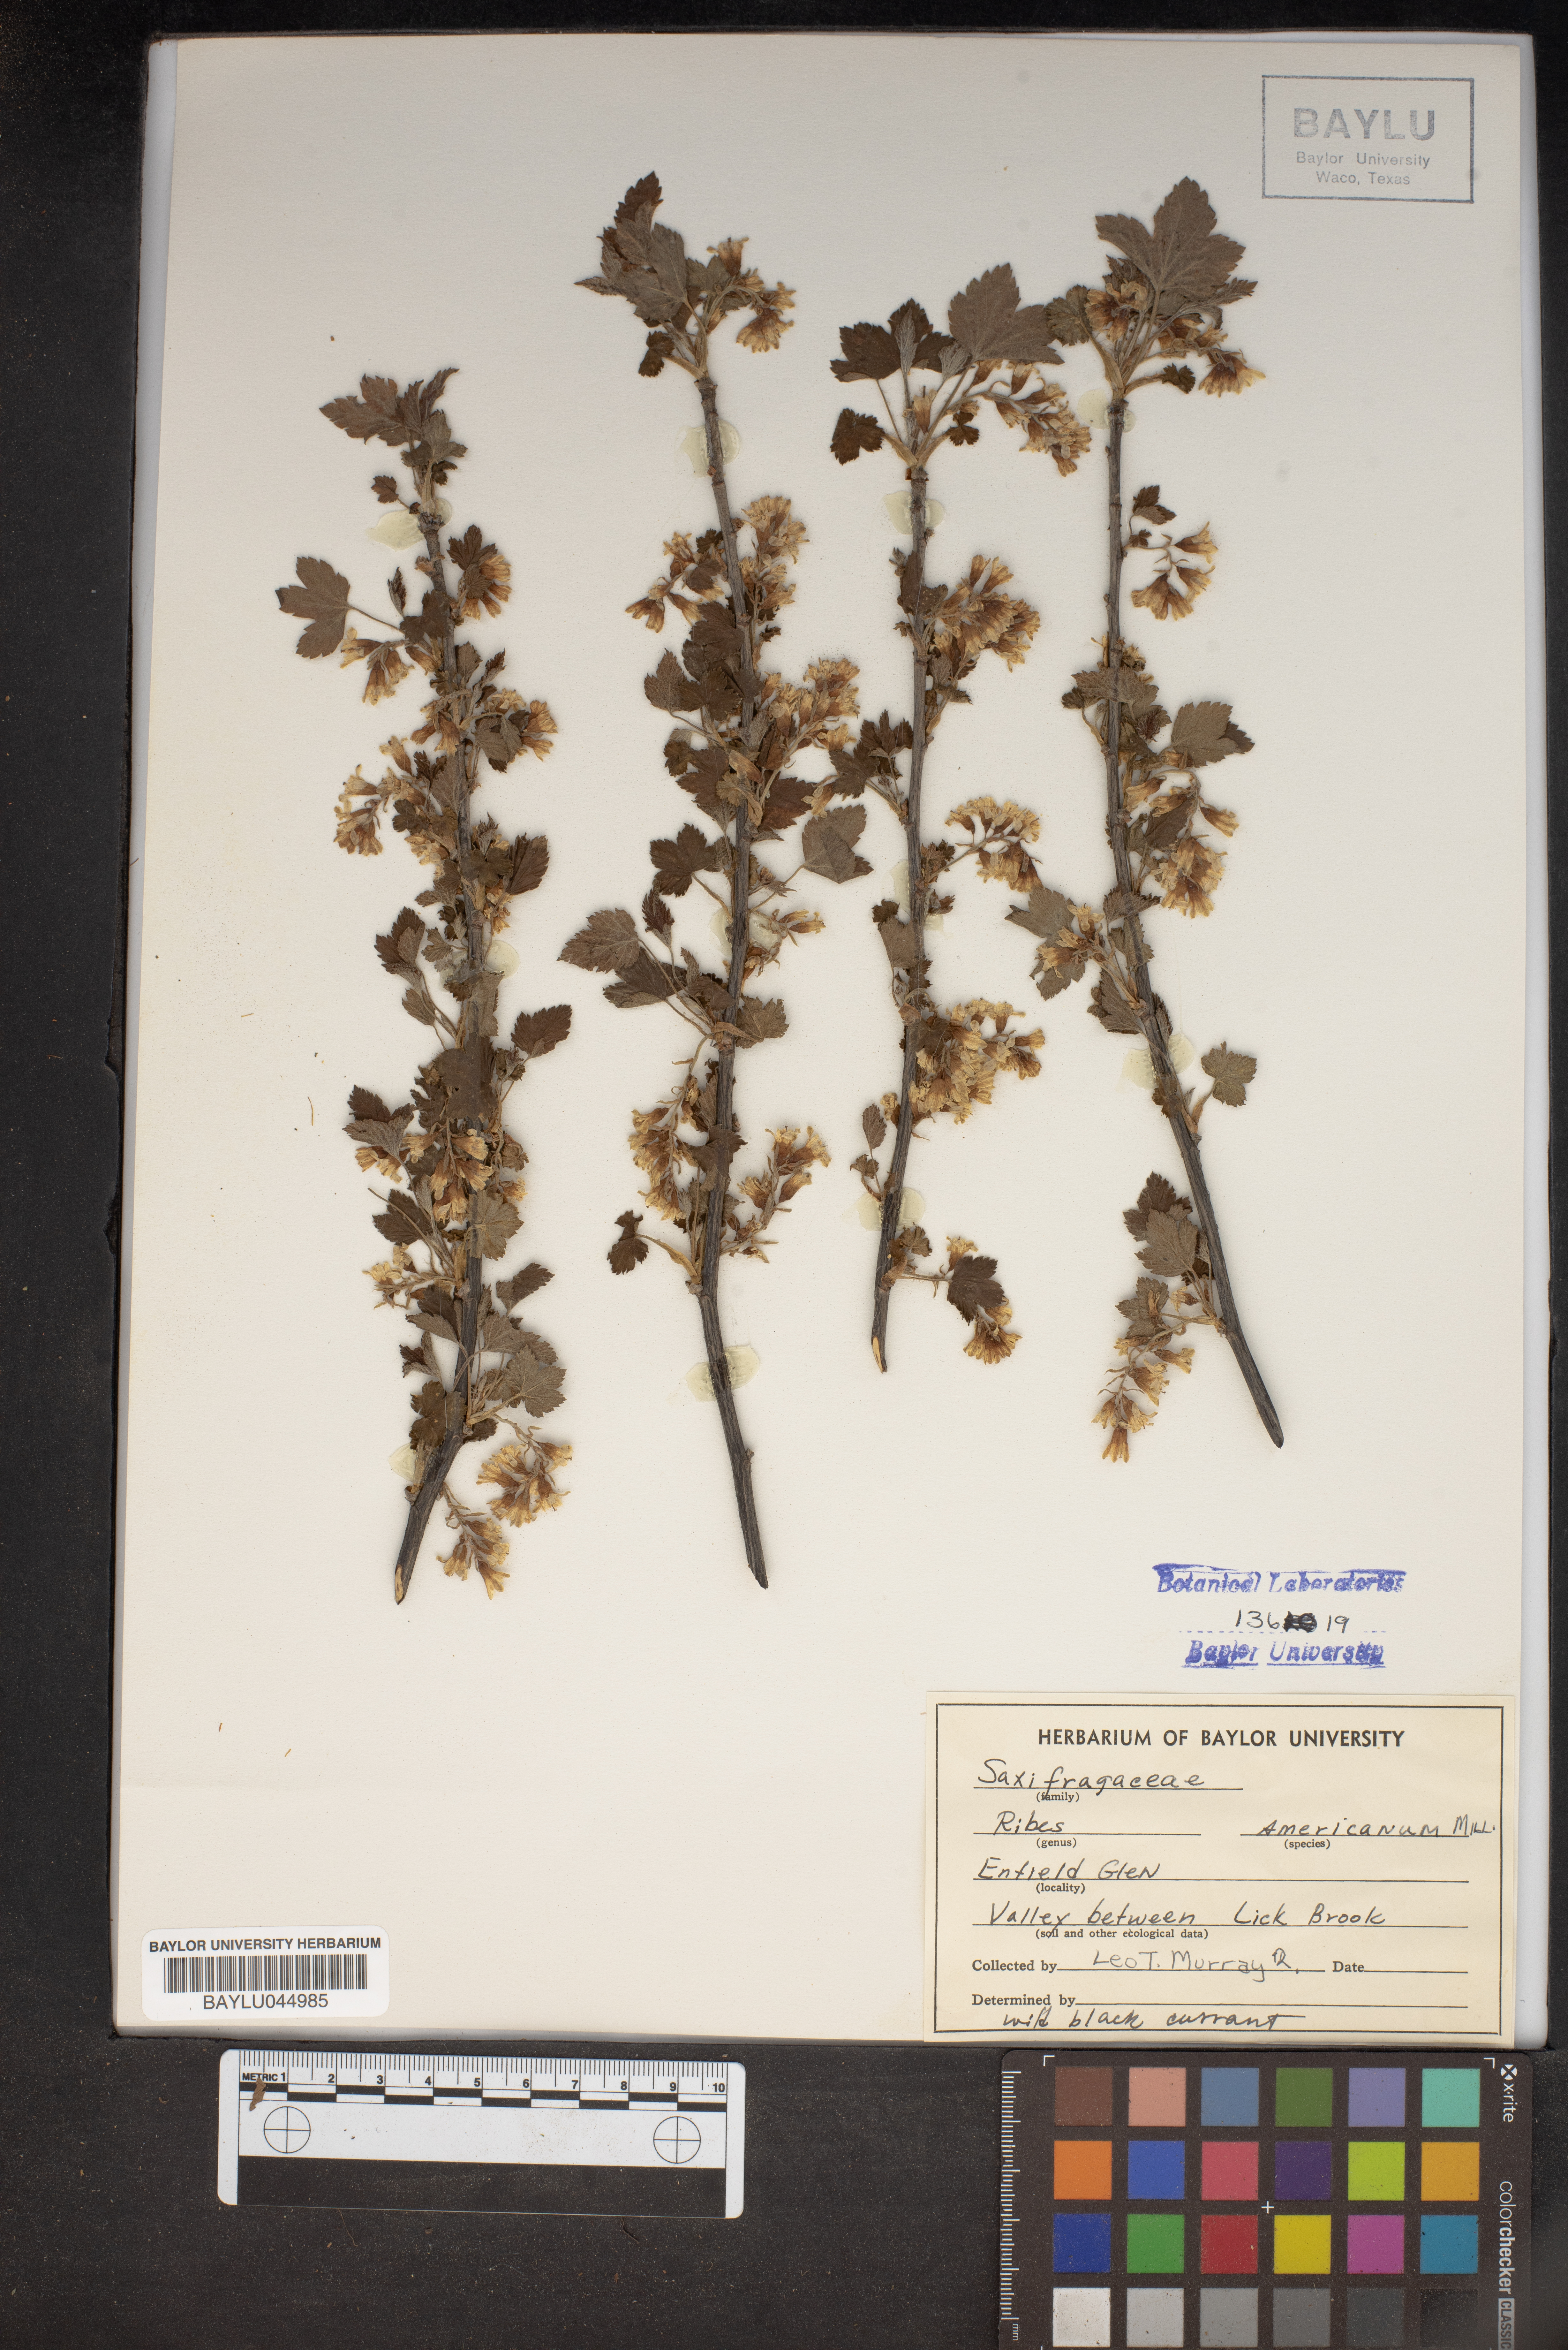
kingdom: Plantae
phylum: Tracheophyta
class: Magnoliopsida
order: Saxifragales
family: Grossulariaceae
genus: Ribes
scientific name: Ribes americanum
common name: American black currant
